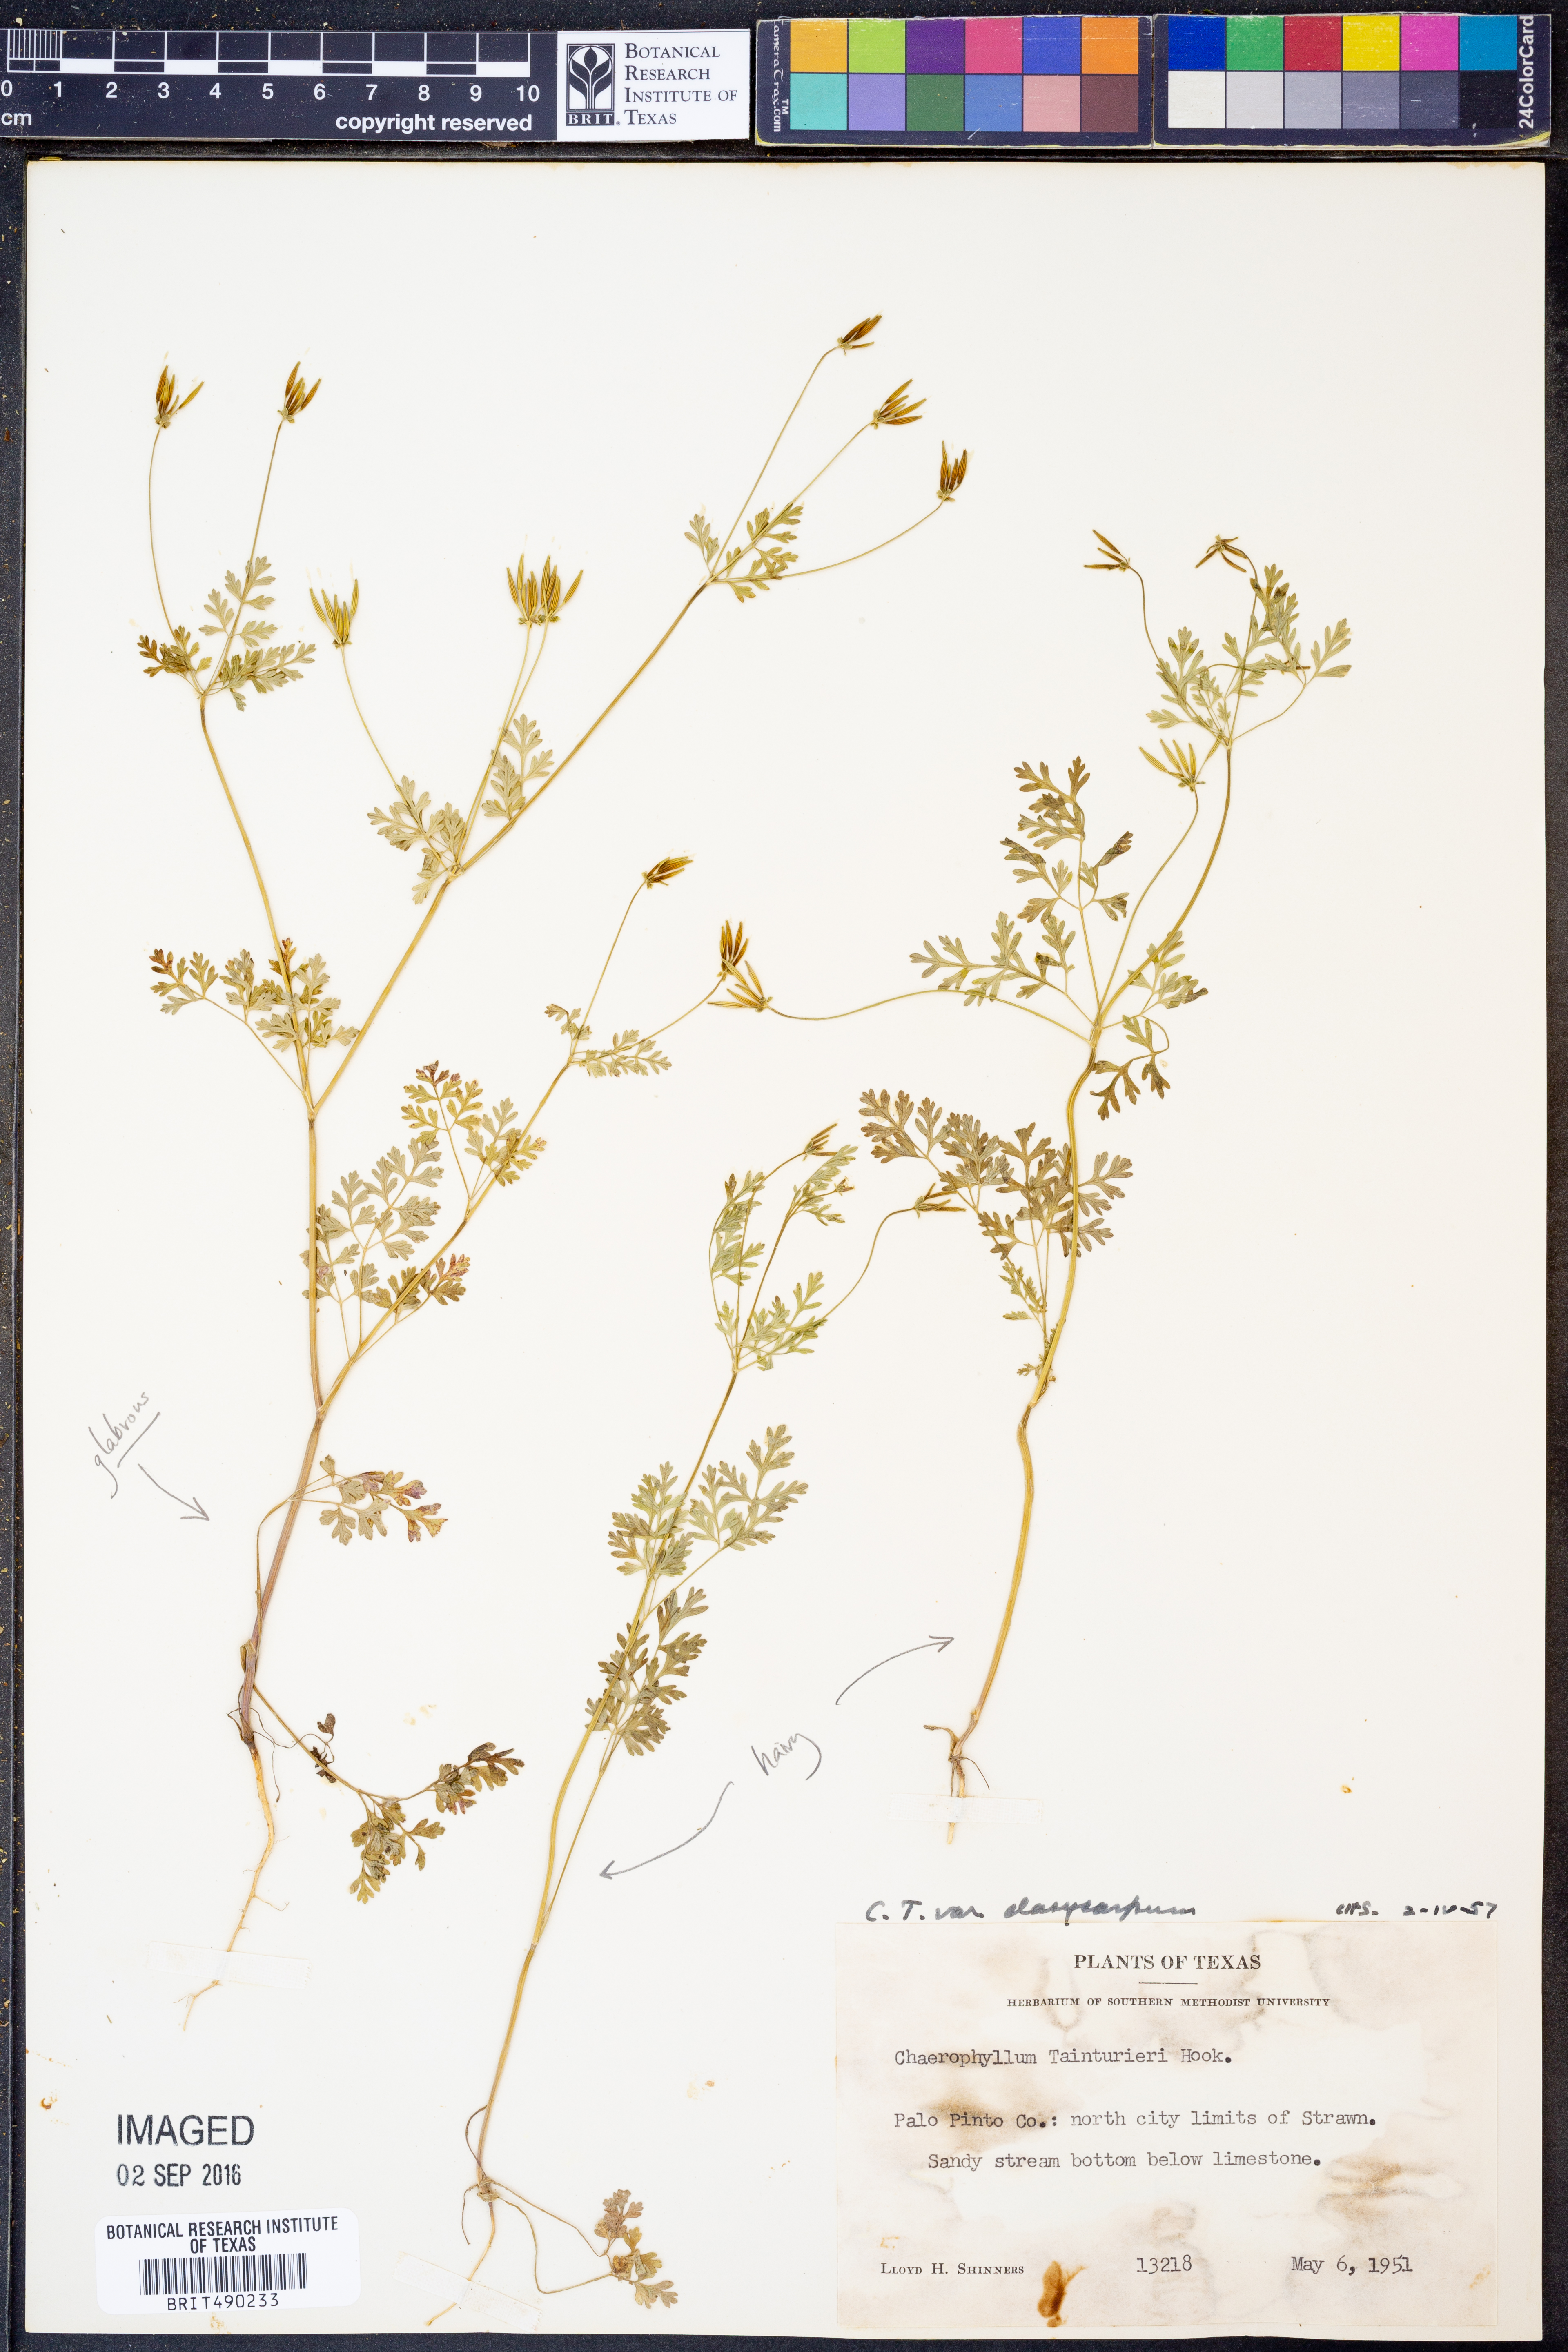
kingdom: Plantae
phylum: Tracheophyta
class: Magnoliopsida
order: Apiales
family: Apiaceae
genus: Chaerophyllum
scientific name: Chaerophyllum dasycarpum
